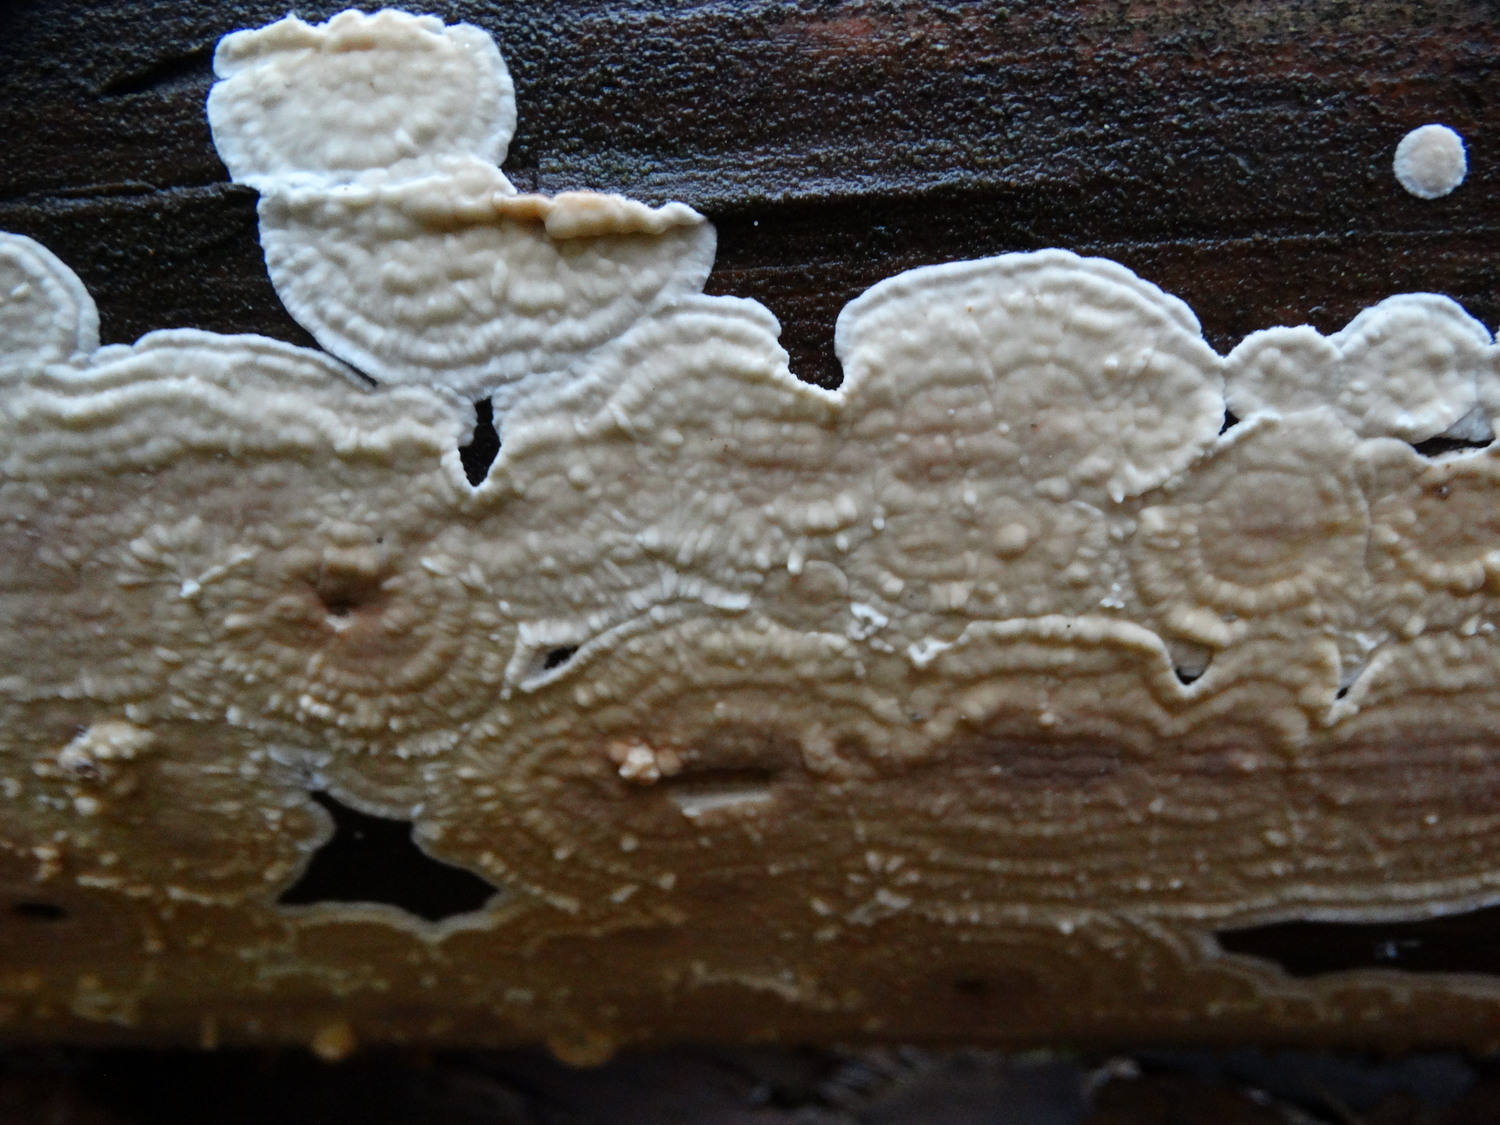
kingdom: Fungi
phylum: Basidiomycota
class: Agaricomycetes
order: Polyporales
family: Dacryobolaceae
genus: Dacryobolus
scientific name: Dacryobolus karstenii
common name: glat vulkanskorpe
